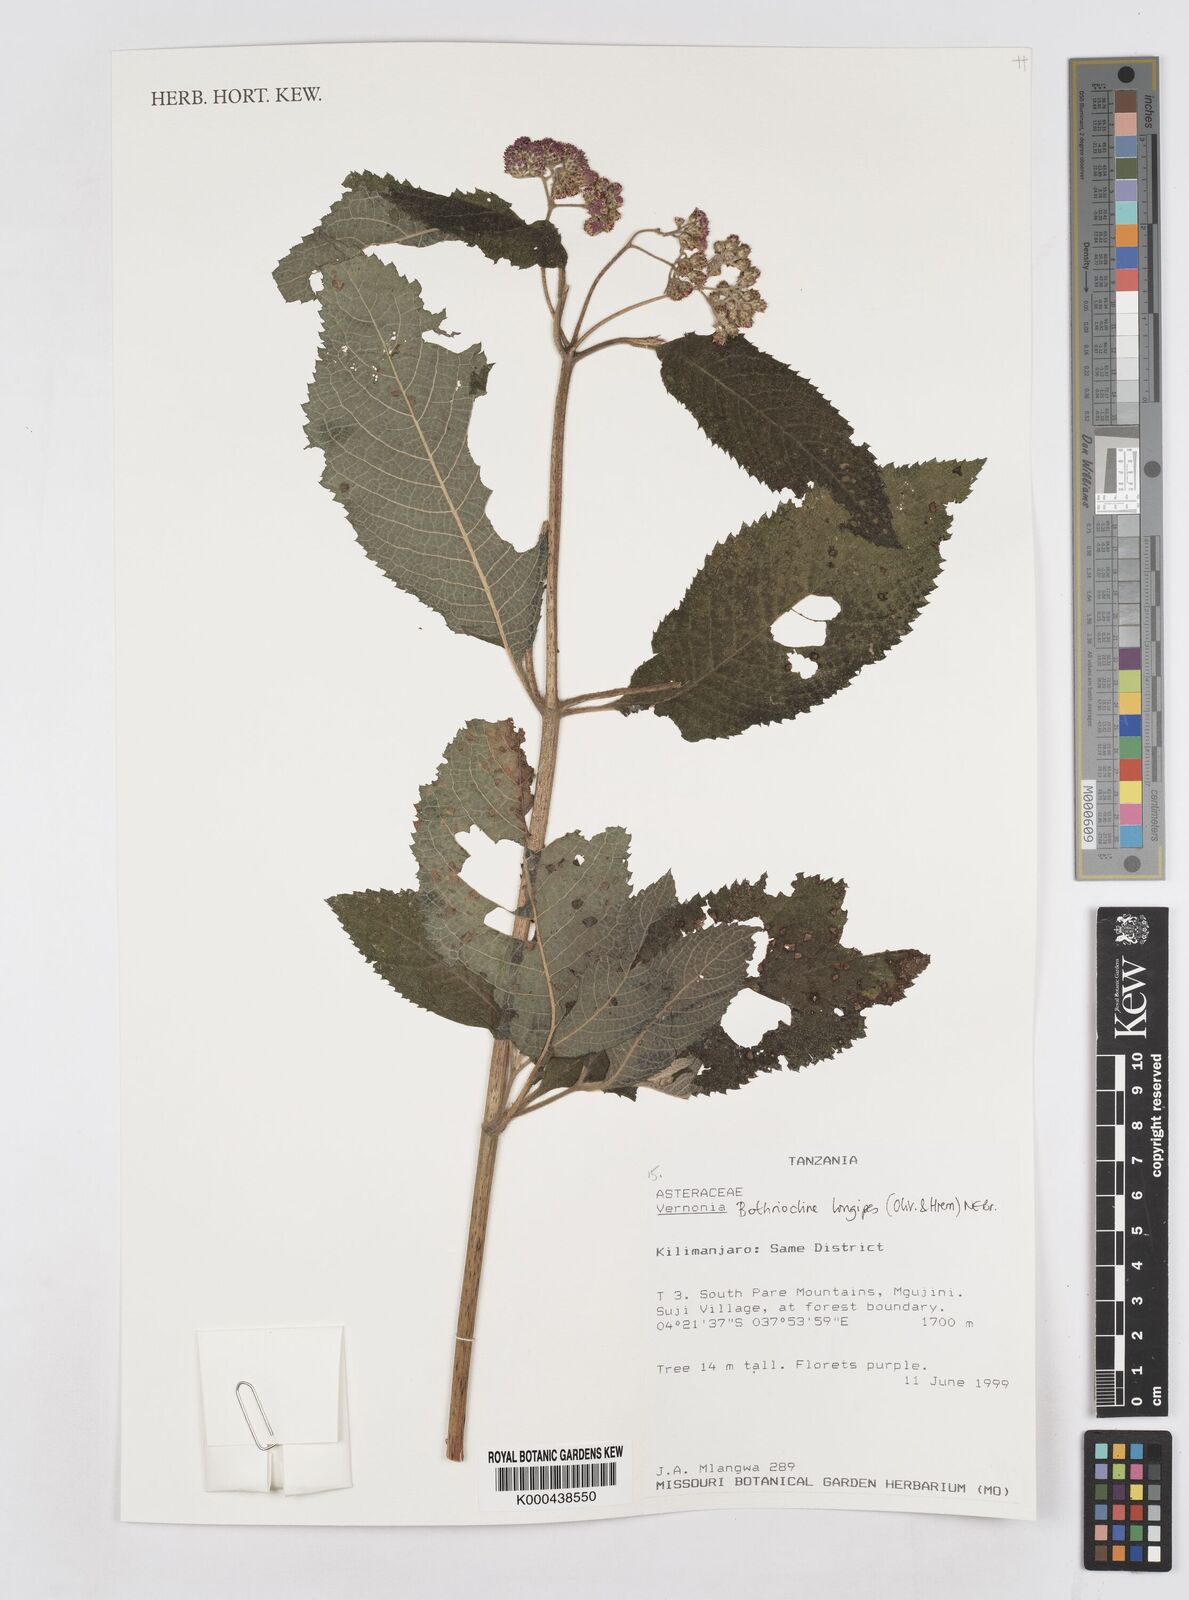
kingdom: Plantae
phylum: Tracheophyta
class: Magnoliopsida
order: Asterales
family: Asteraceae
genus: Bothriocline
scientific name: Bothriocline longipes
